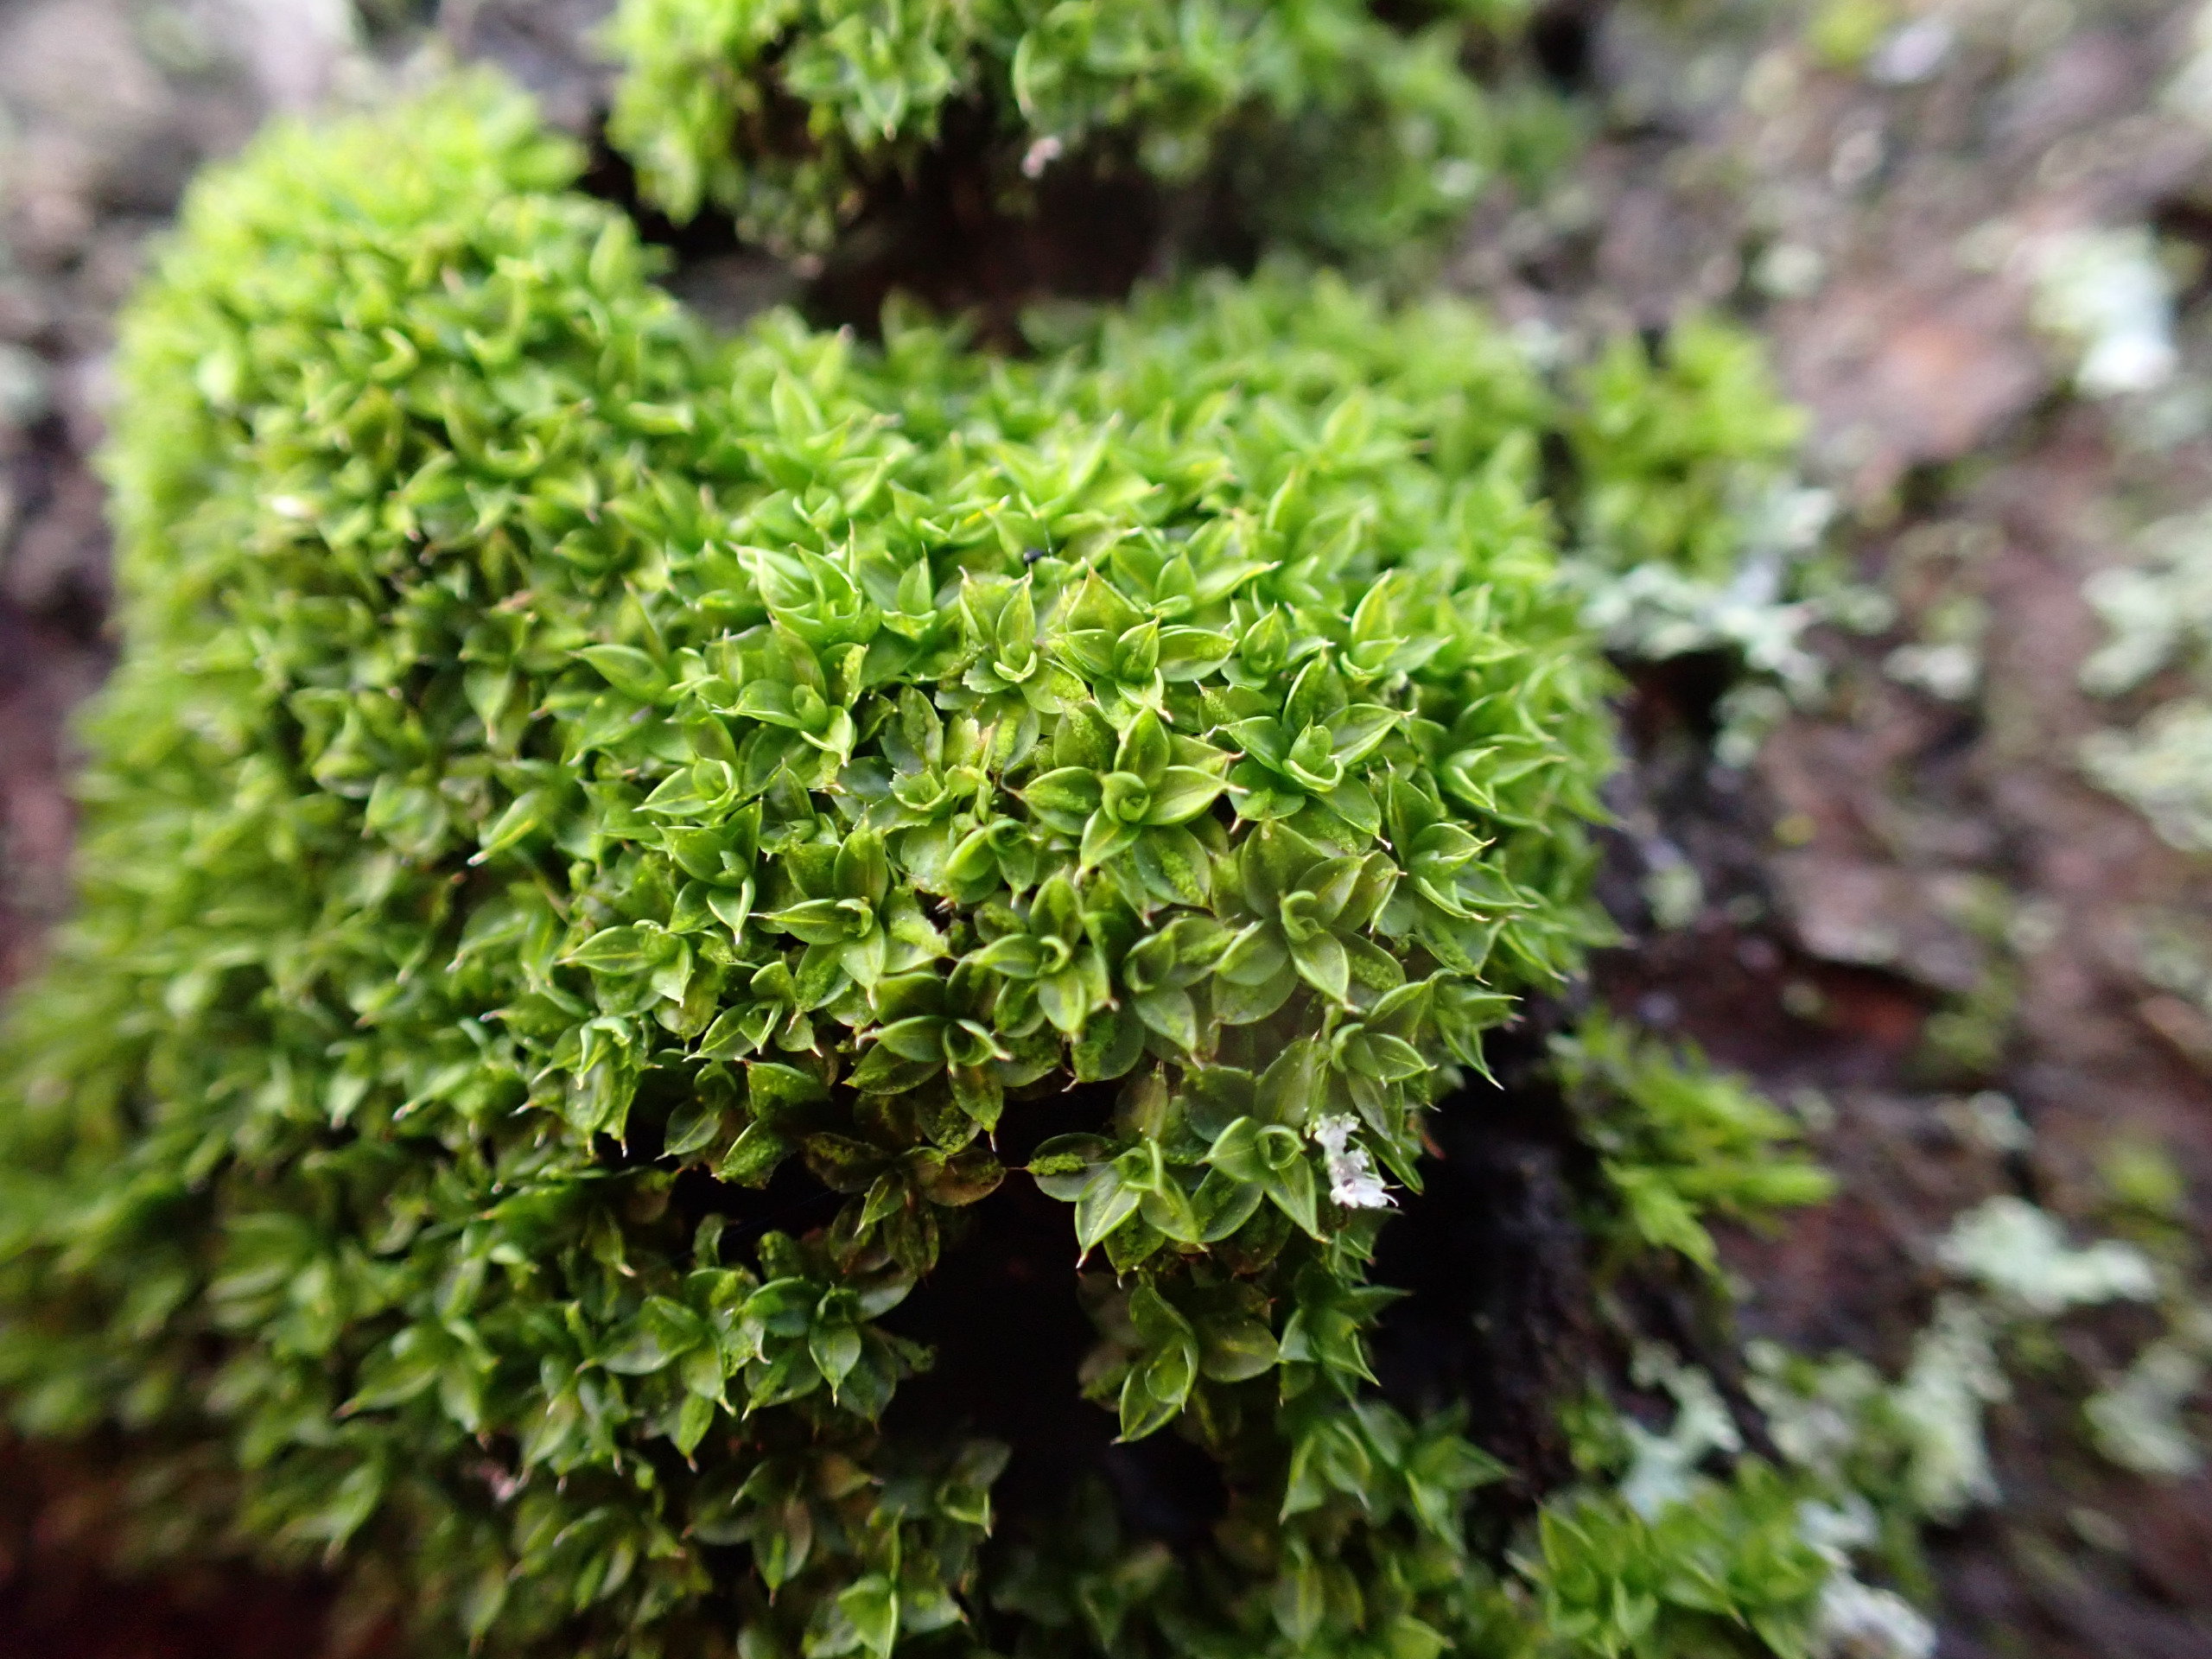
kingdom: Plantae
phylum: Bryophyta
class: Bryopsida
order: Pottiales
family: Pottiaceae
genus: Syntrichia
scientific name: Syntrichia papillosa
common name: Bark-hårstjerne
